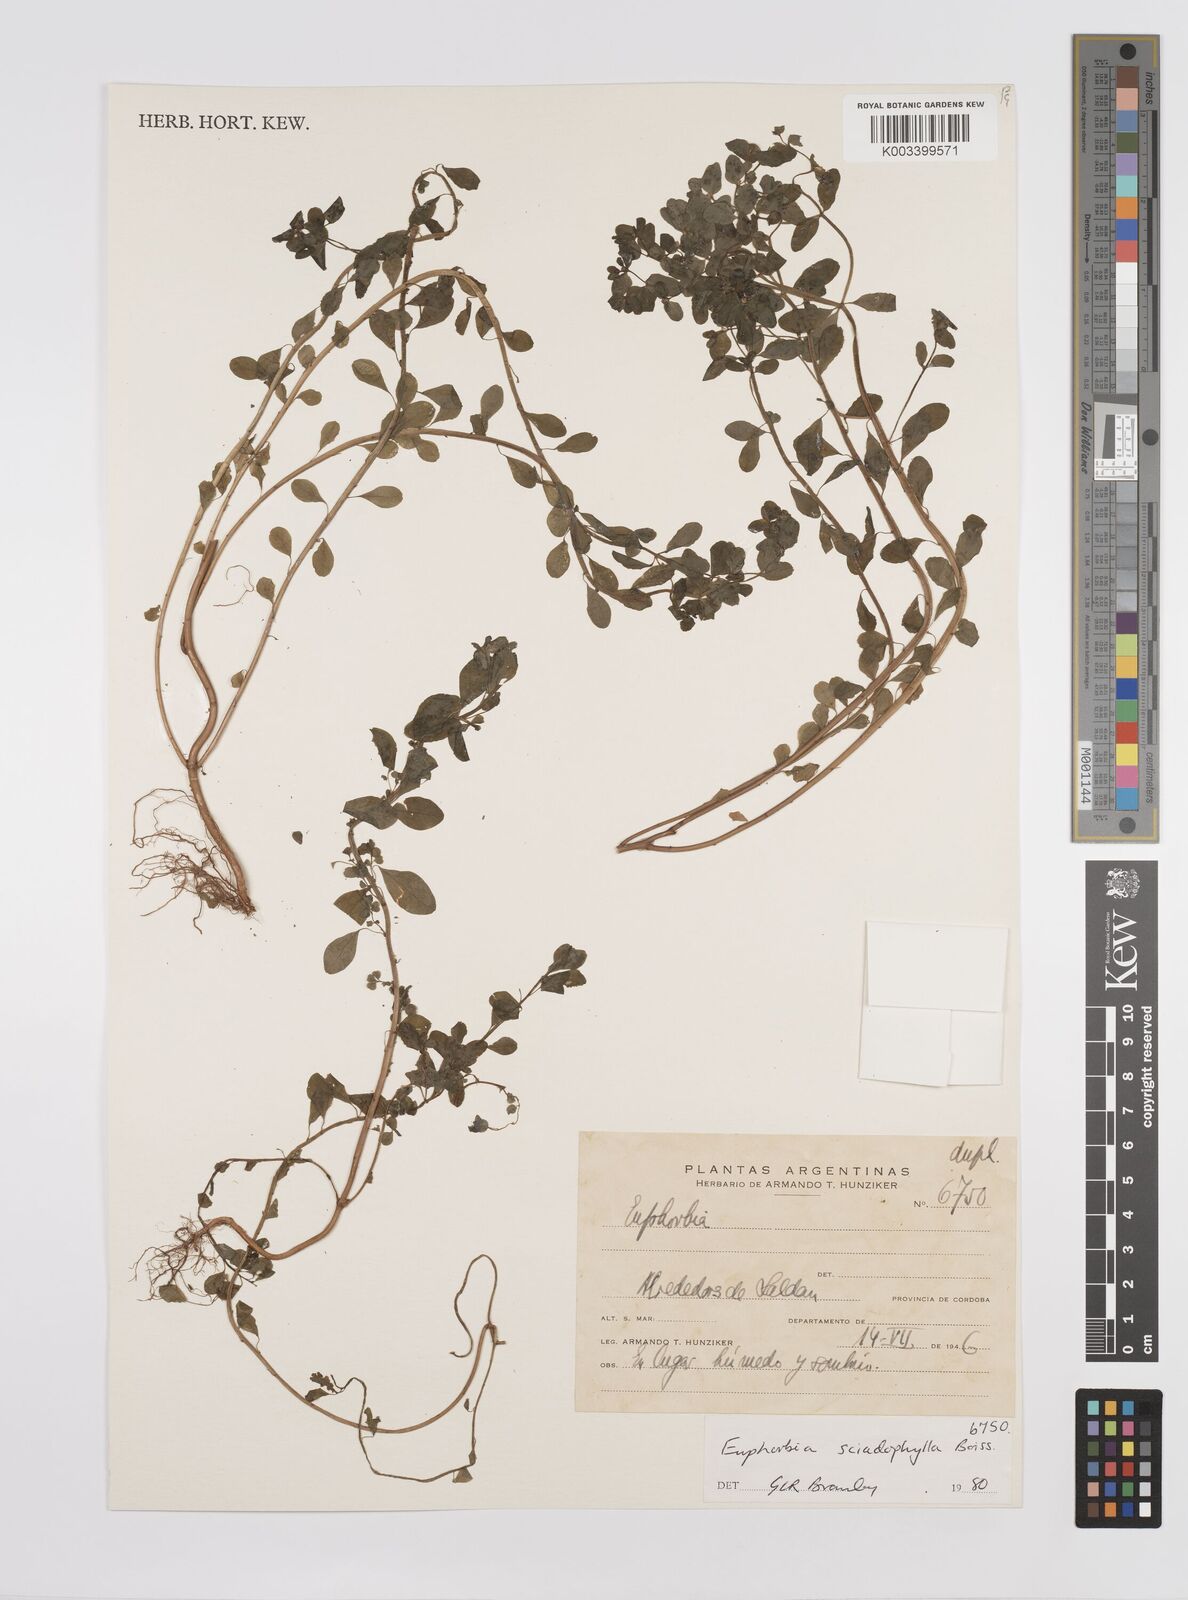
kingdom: Plantae
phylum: Tracheophyta
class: Magnoliopsida
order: Malpighiales
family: Euphorbiaceae
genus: Euphorbia
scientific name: Euphorbia sciadophila
